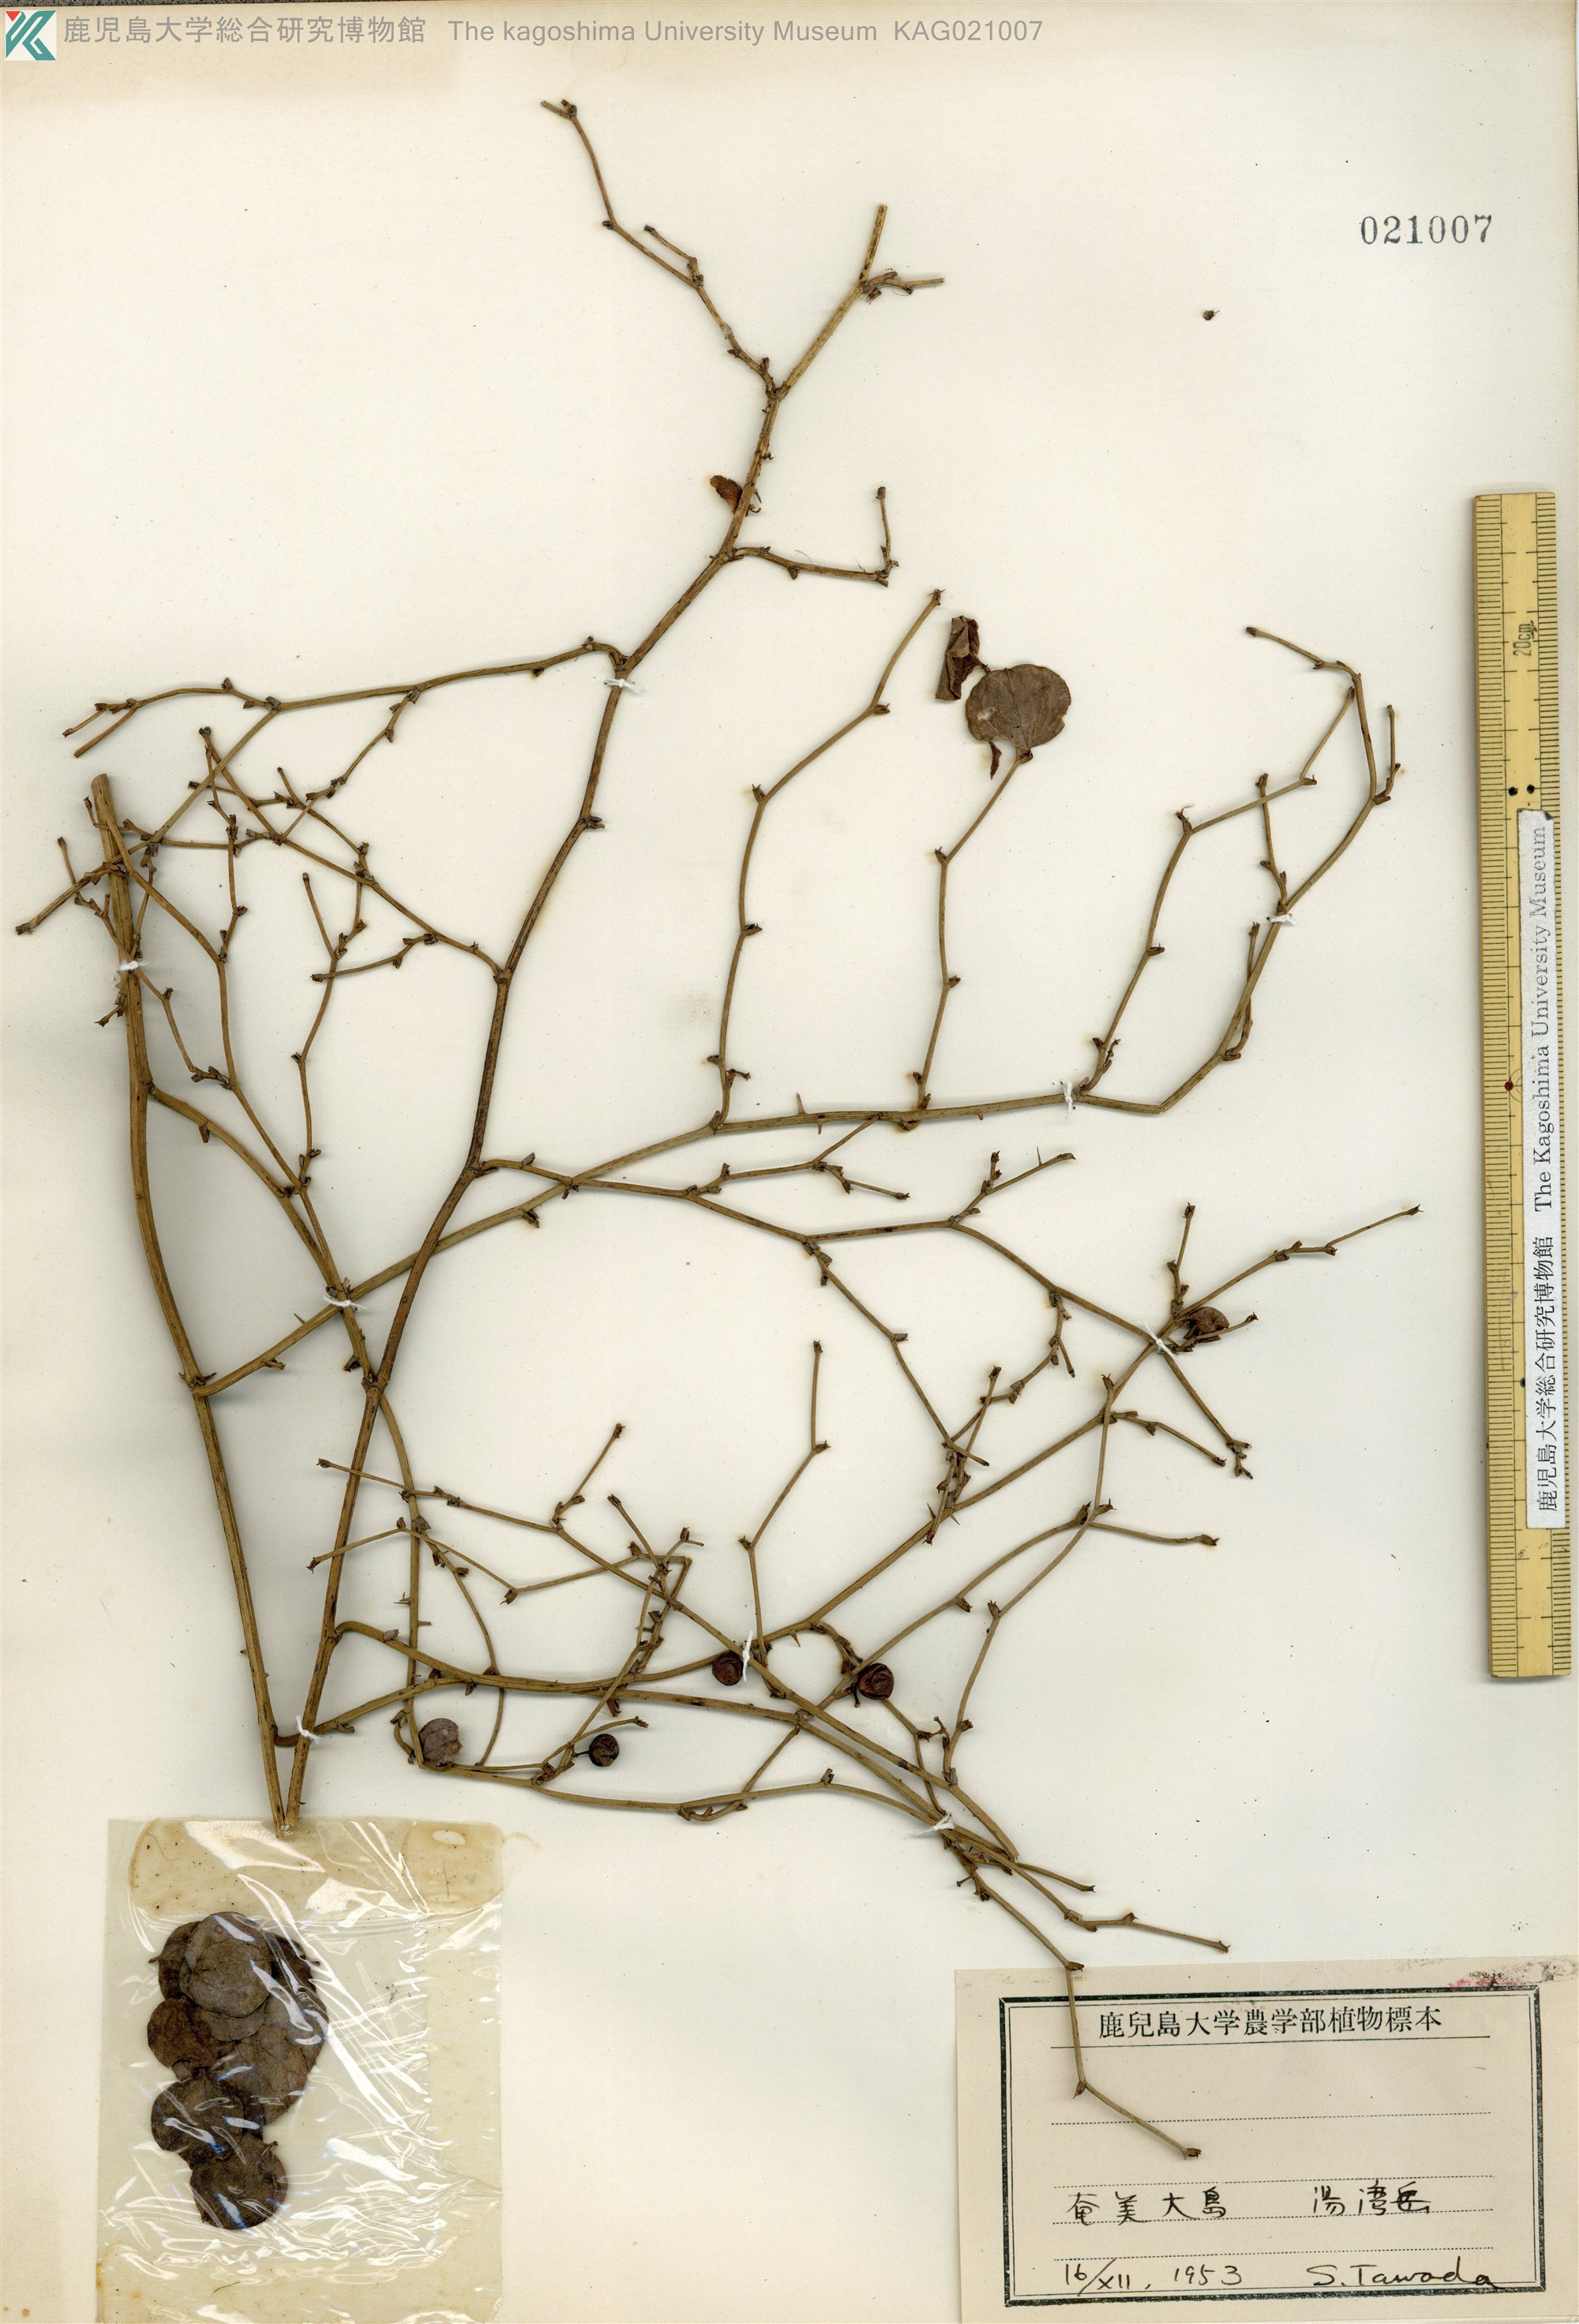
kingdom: Plantae
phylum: Tracheophyta
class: Liliopsida
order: Liliales
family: Smilacaceae
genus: Smilax
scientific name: Smilax amamiana
